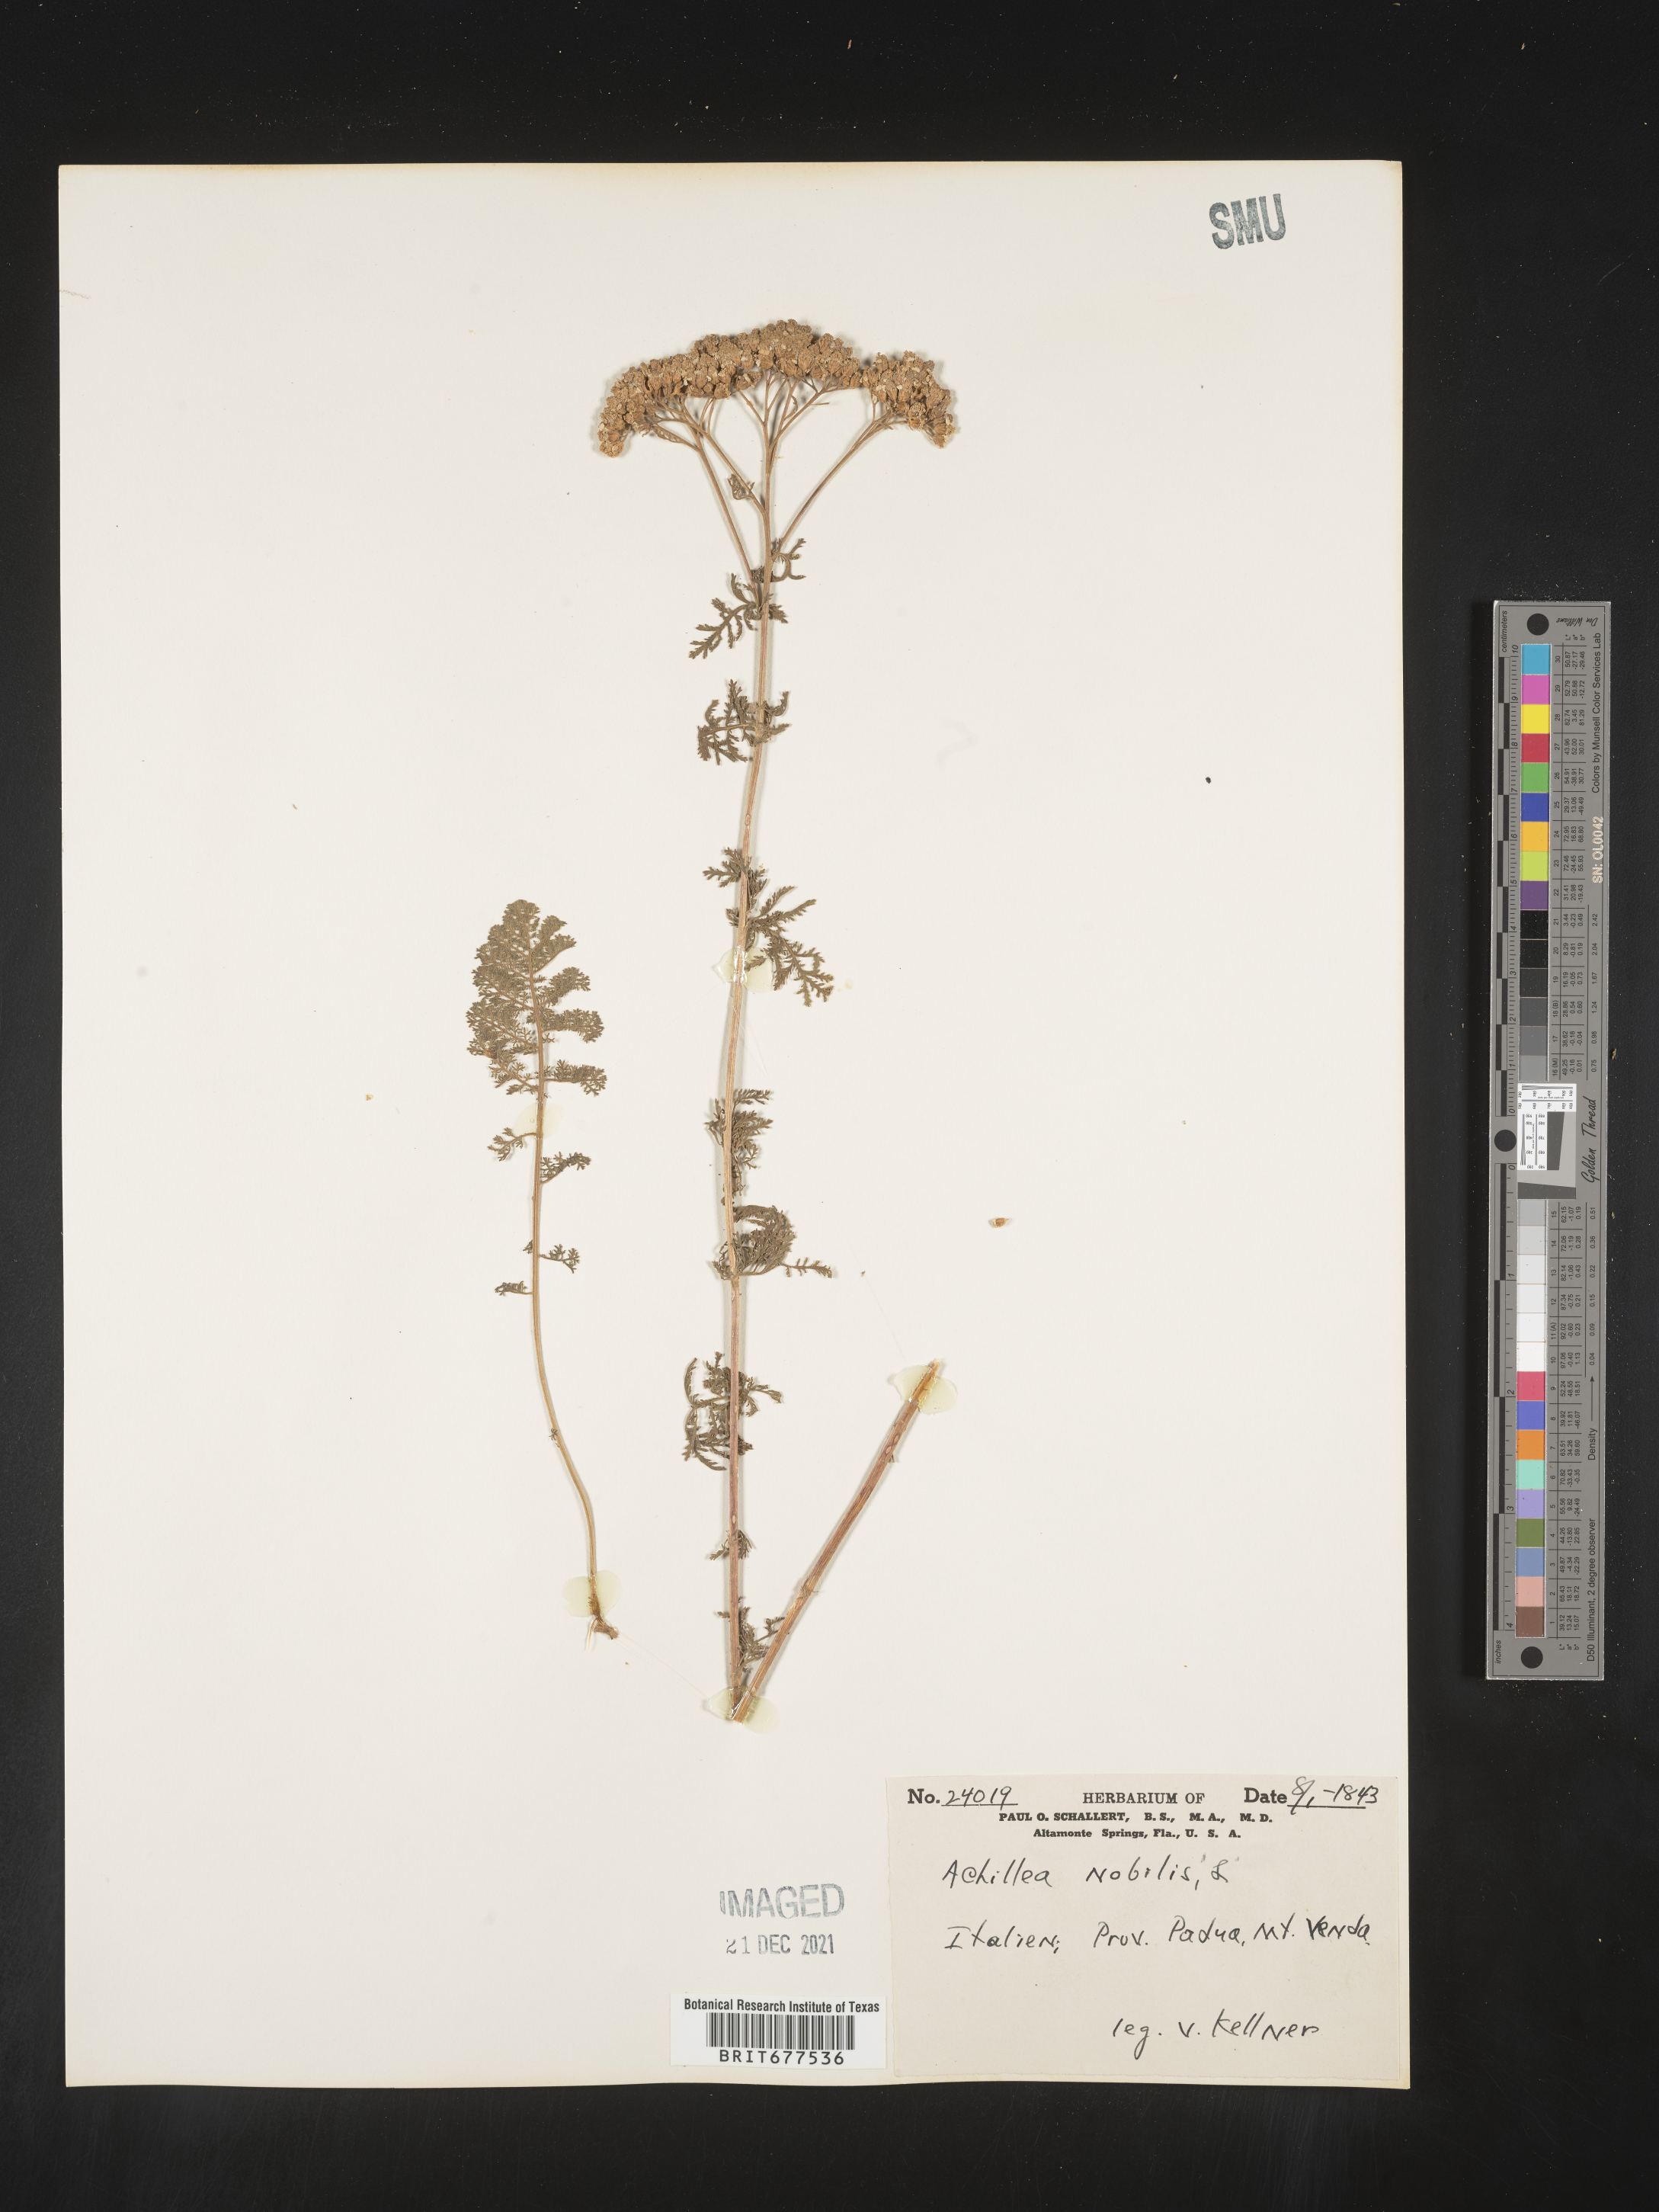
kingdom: Plantae
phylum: Tracheophyta
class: Magnoliopsida
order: Asterales
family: Asteraceae
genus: Achillea
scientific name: Achillea
